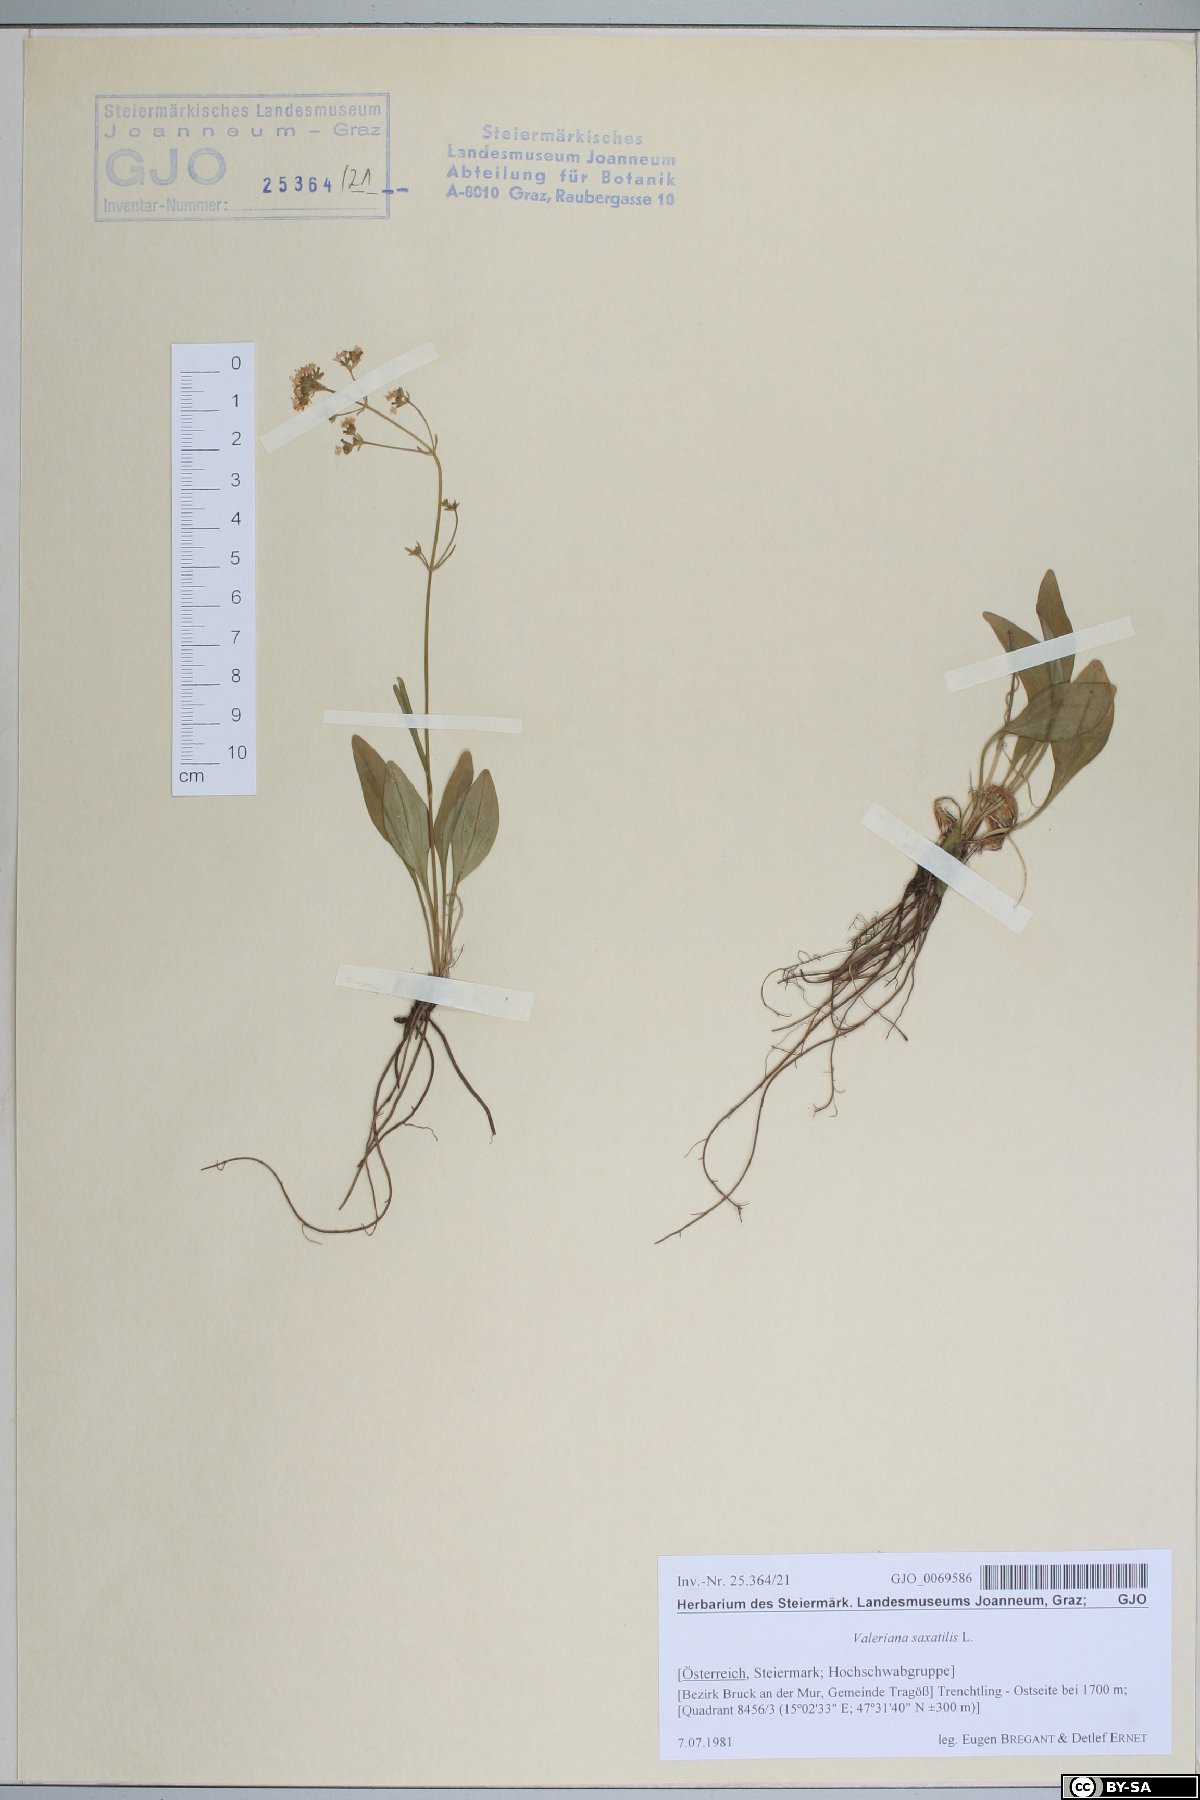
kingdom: Plantae
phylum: Tracheophyta
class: Magnoliopsida
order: Dipsacales
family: Caprifoliaceae
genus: Valeriana
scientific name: Valeriana saxatilis
